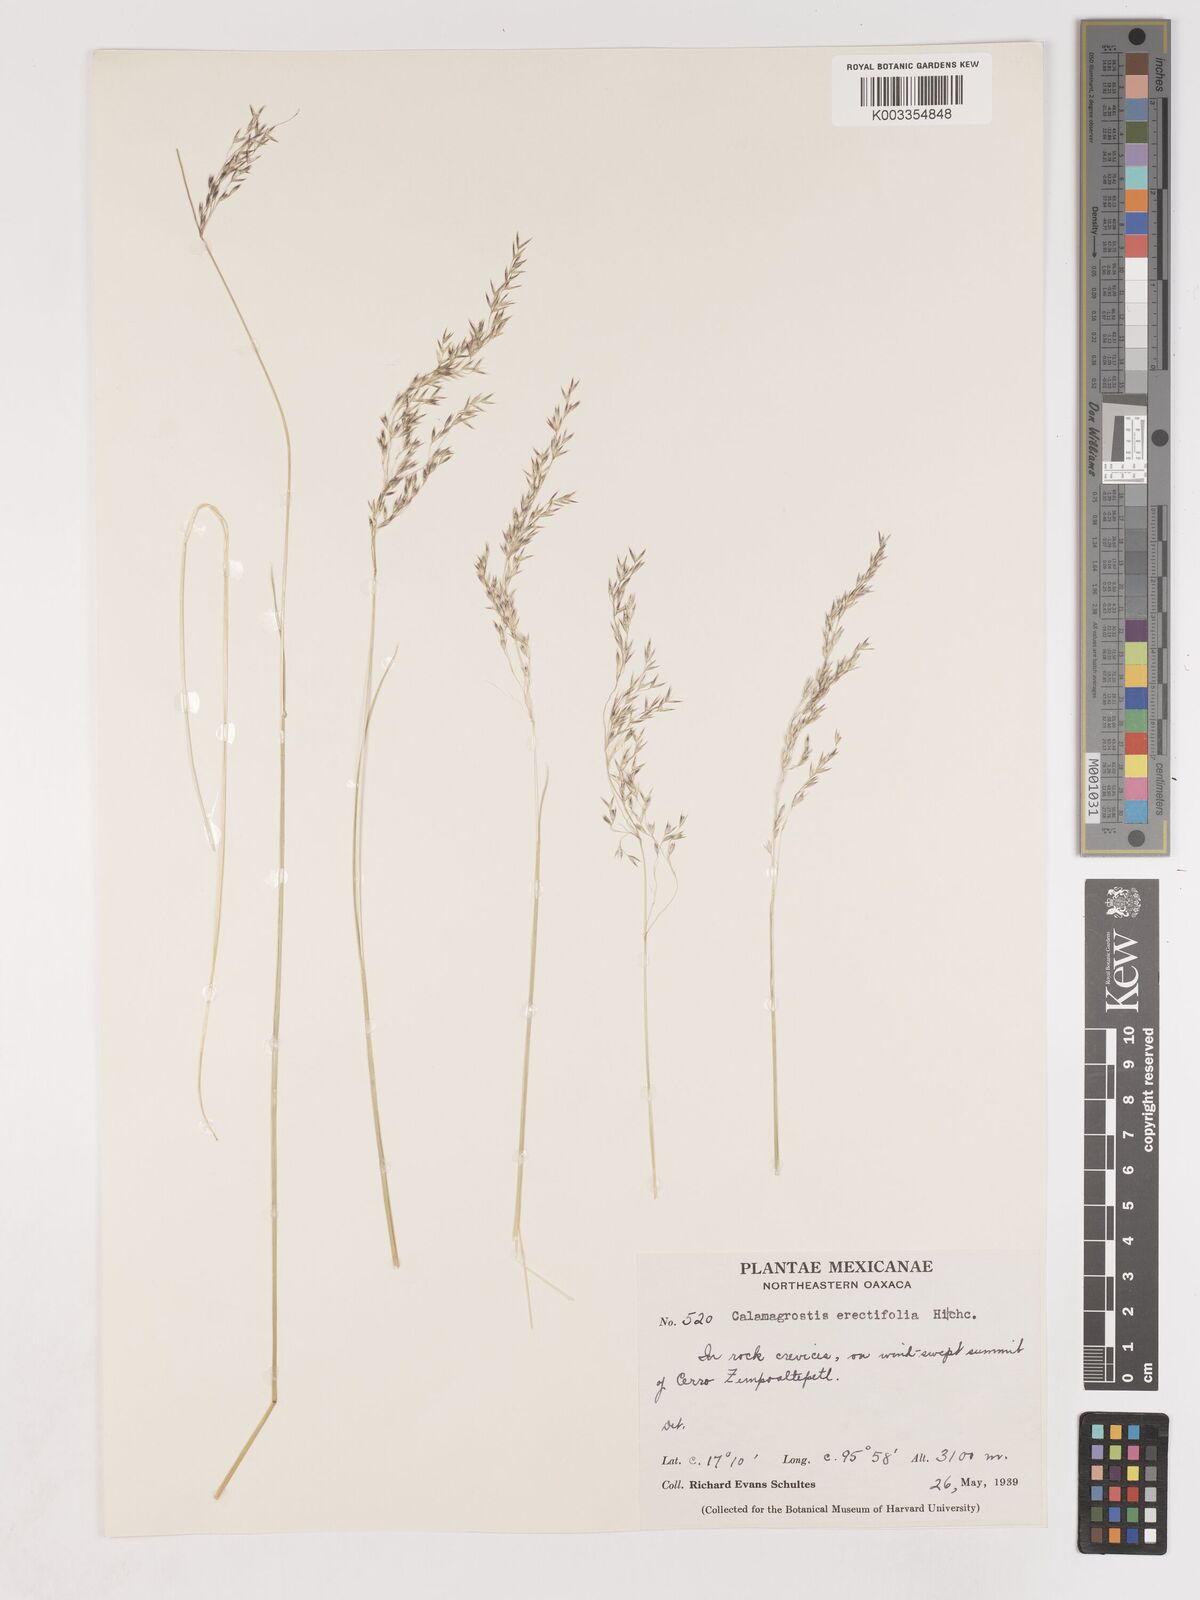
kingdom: Plantae
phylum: Tracheophyta
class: Liliopsida
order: Poales
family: Poaceae
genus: Peyritschia
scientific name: Peyritschia eriantha
